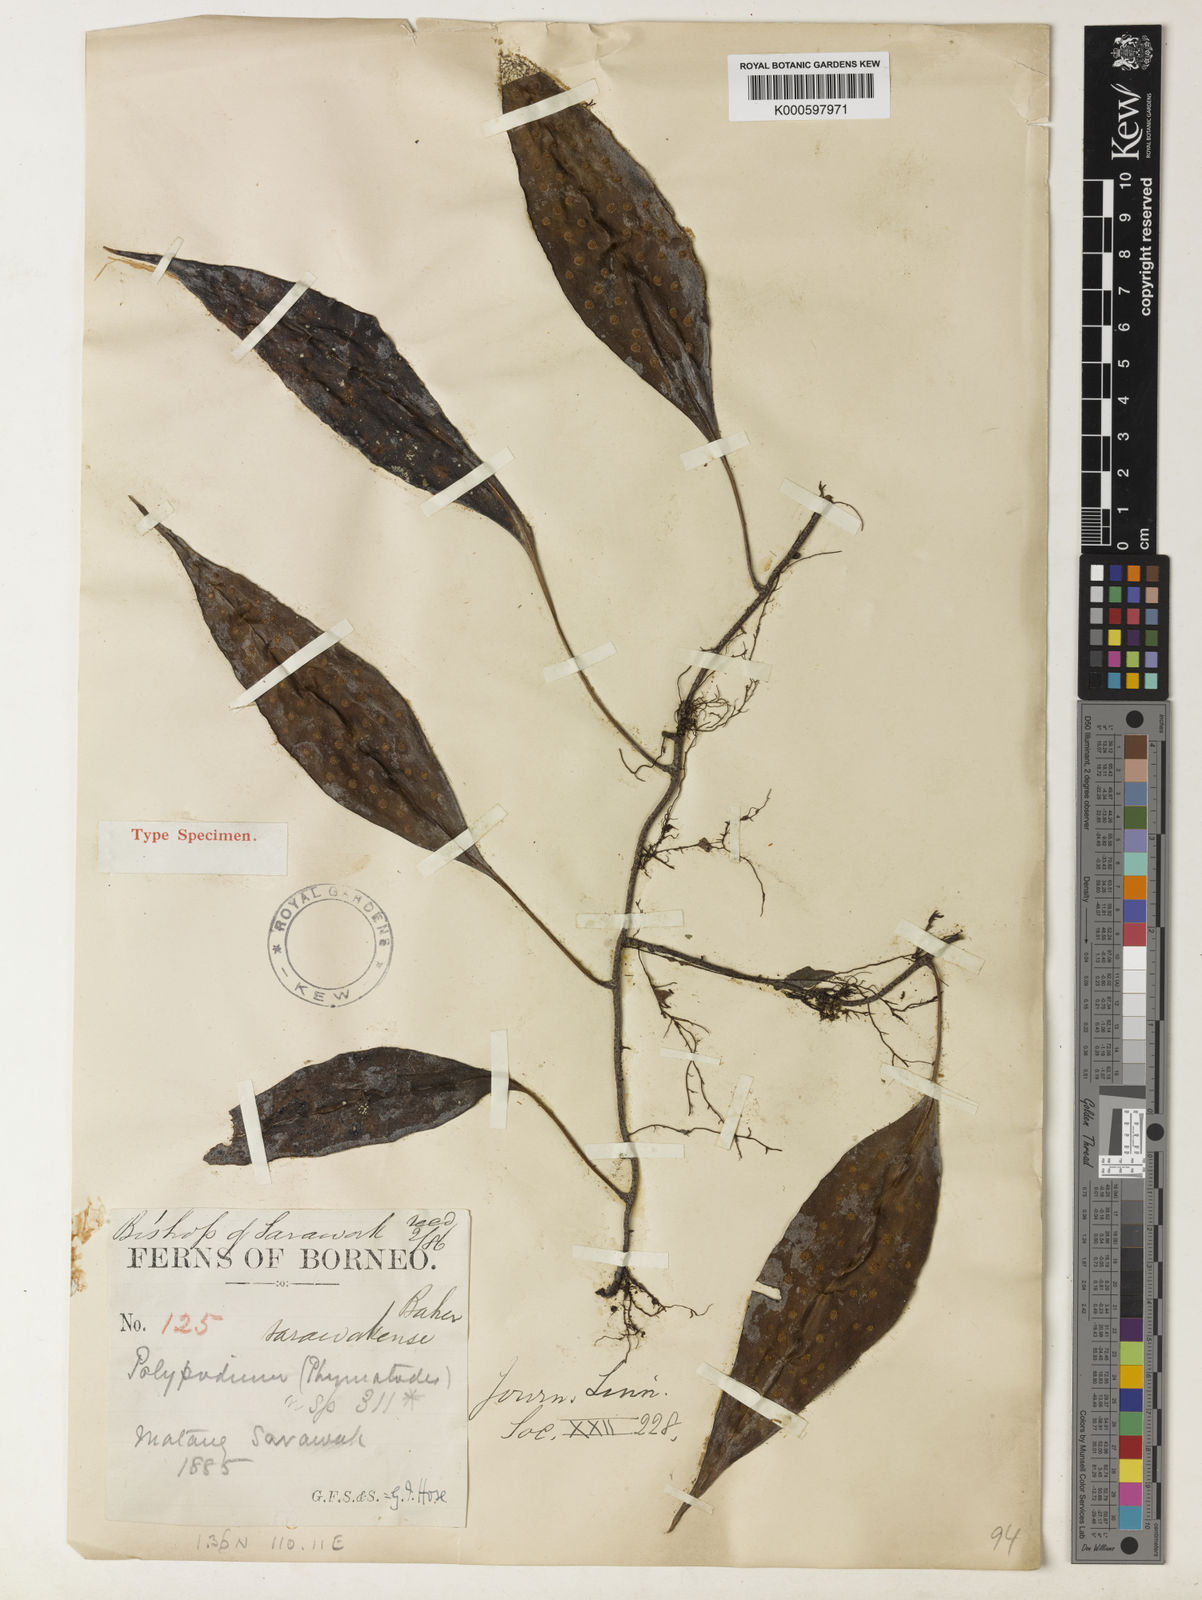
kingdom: Plantae
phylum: Tracheophyta
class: Polypodiopsida
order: Polypodiales
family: Polypodiaceae
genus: Microsorum
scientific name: Microsorum sarawakense
